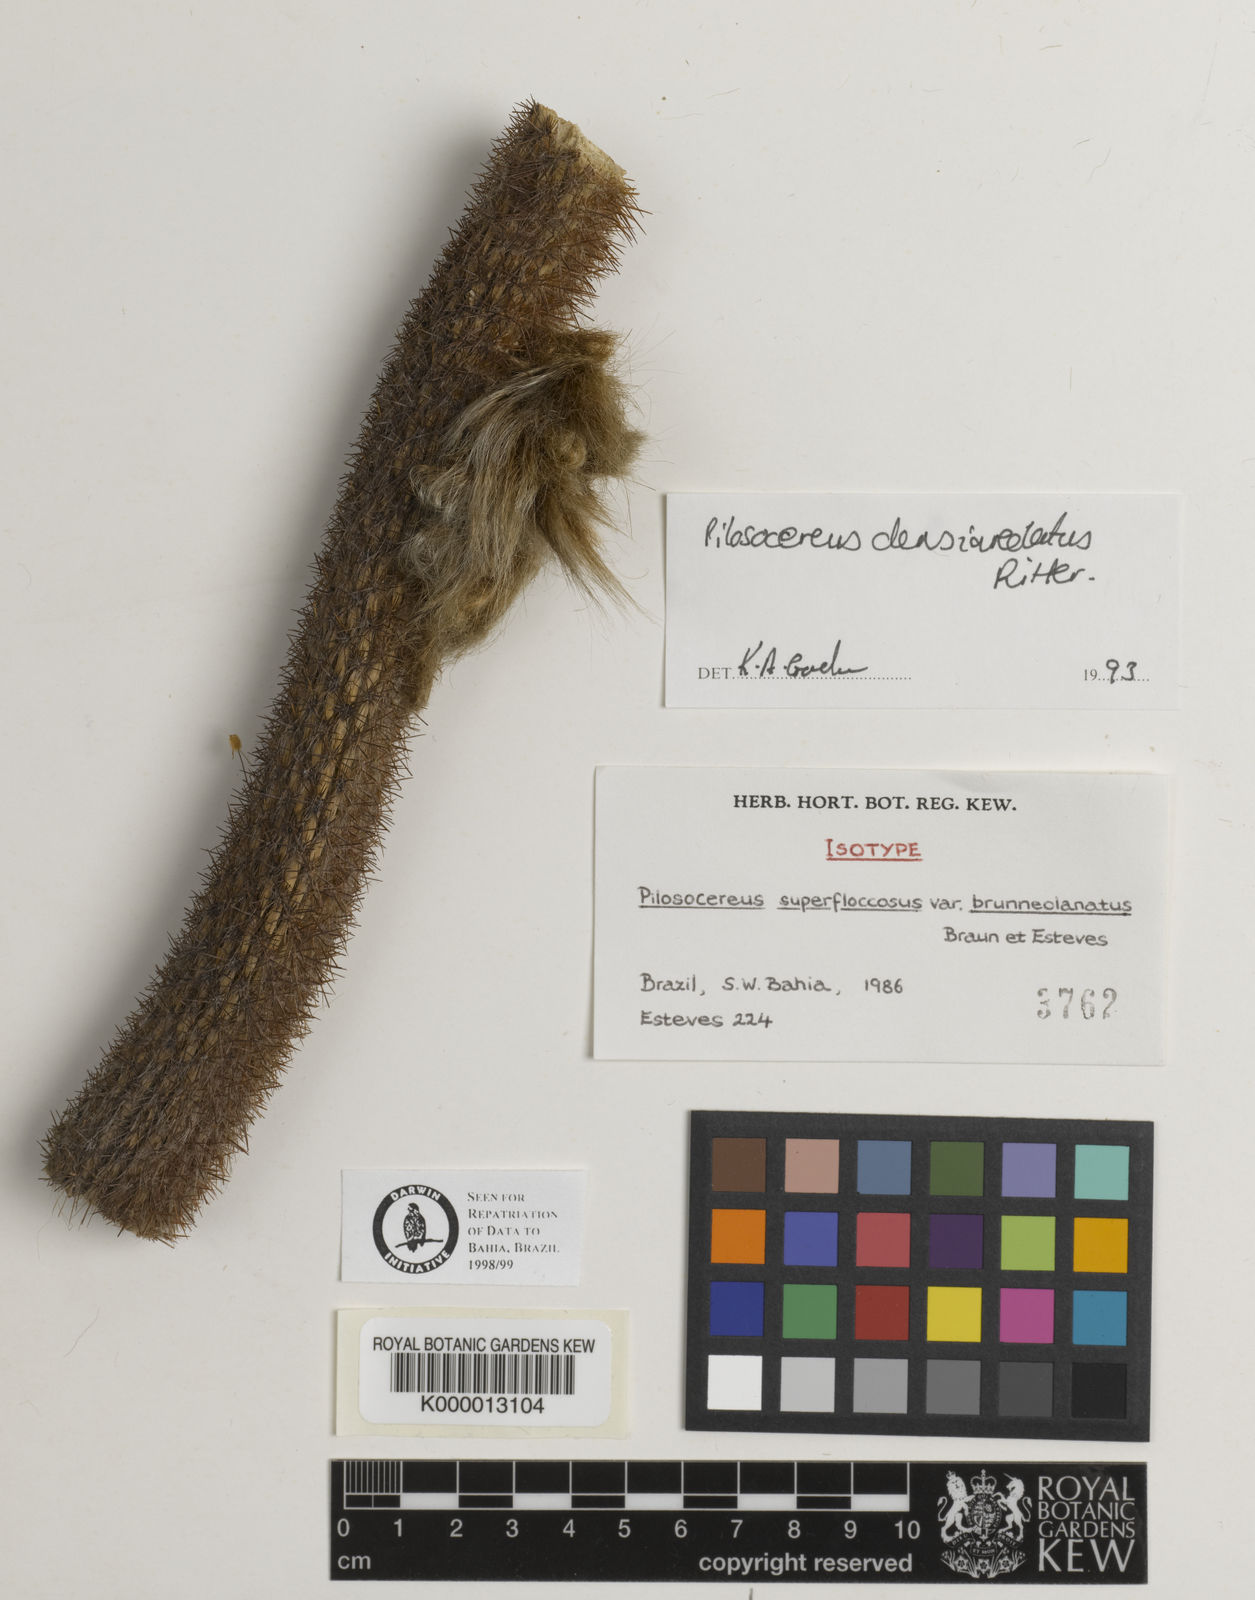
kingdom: Plantae
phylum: Tracheophyta
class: Magnoliopsida
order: Caryophyllales
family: Cactaceae
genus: Xiquexique
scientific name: Xiquexique gounellei
